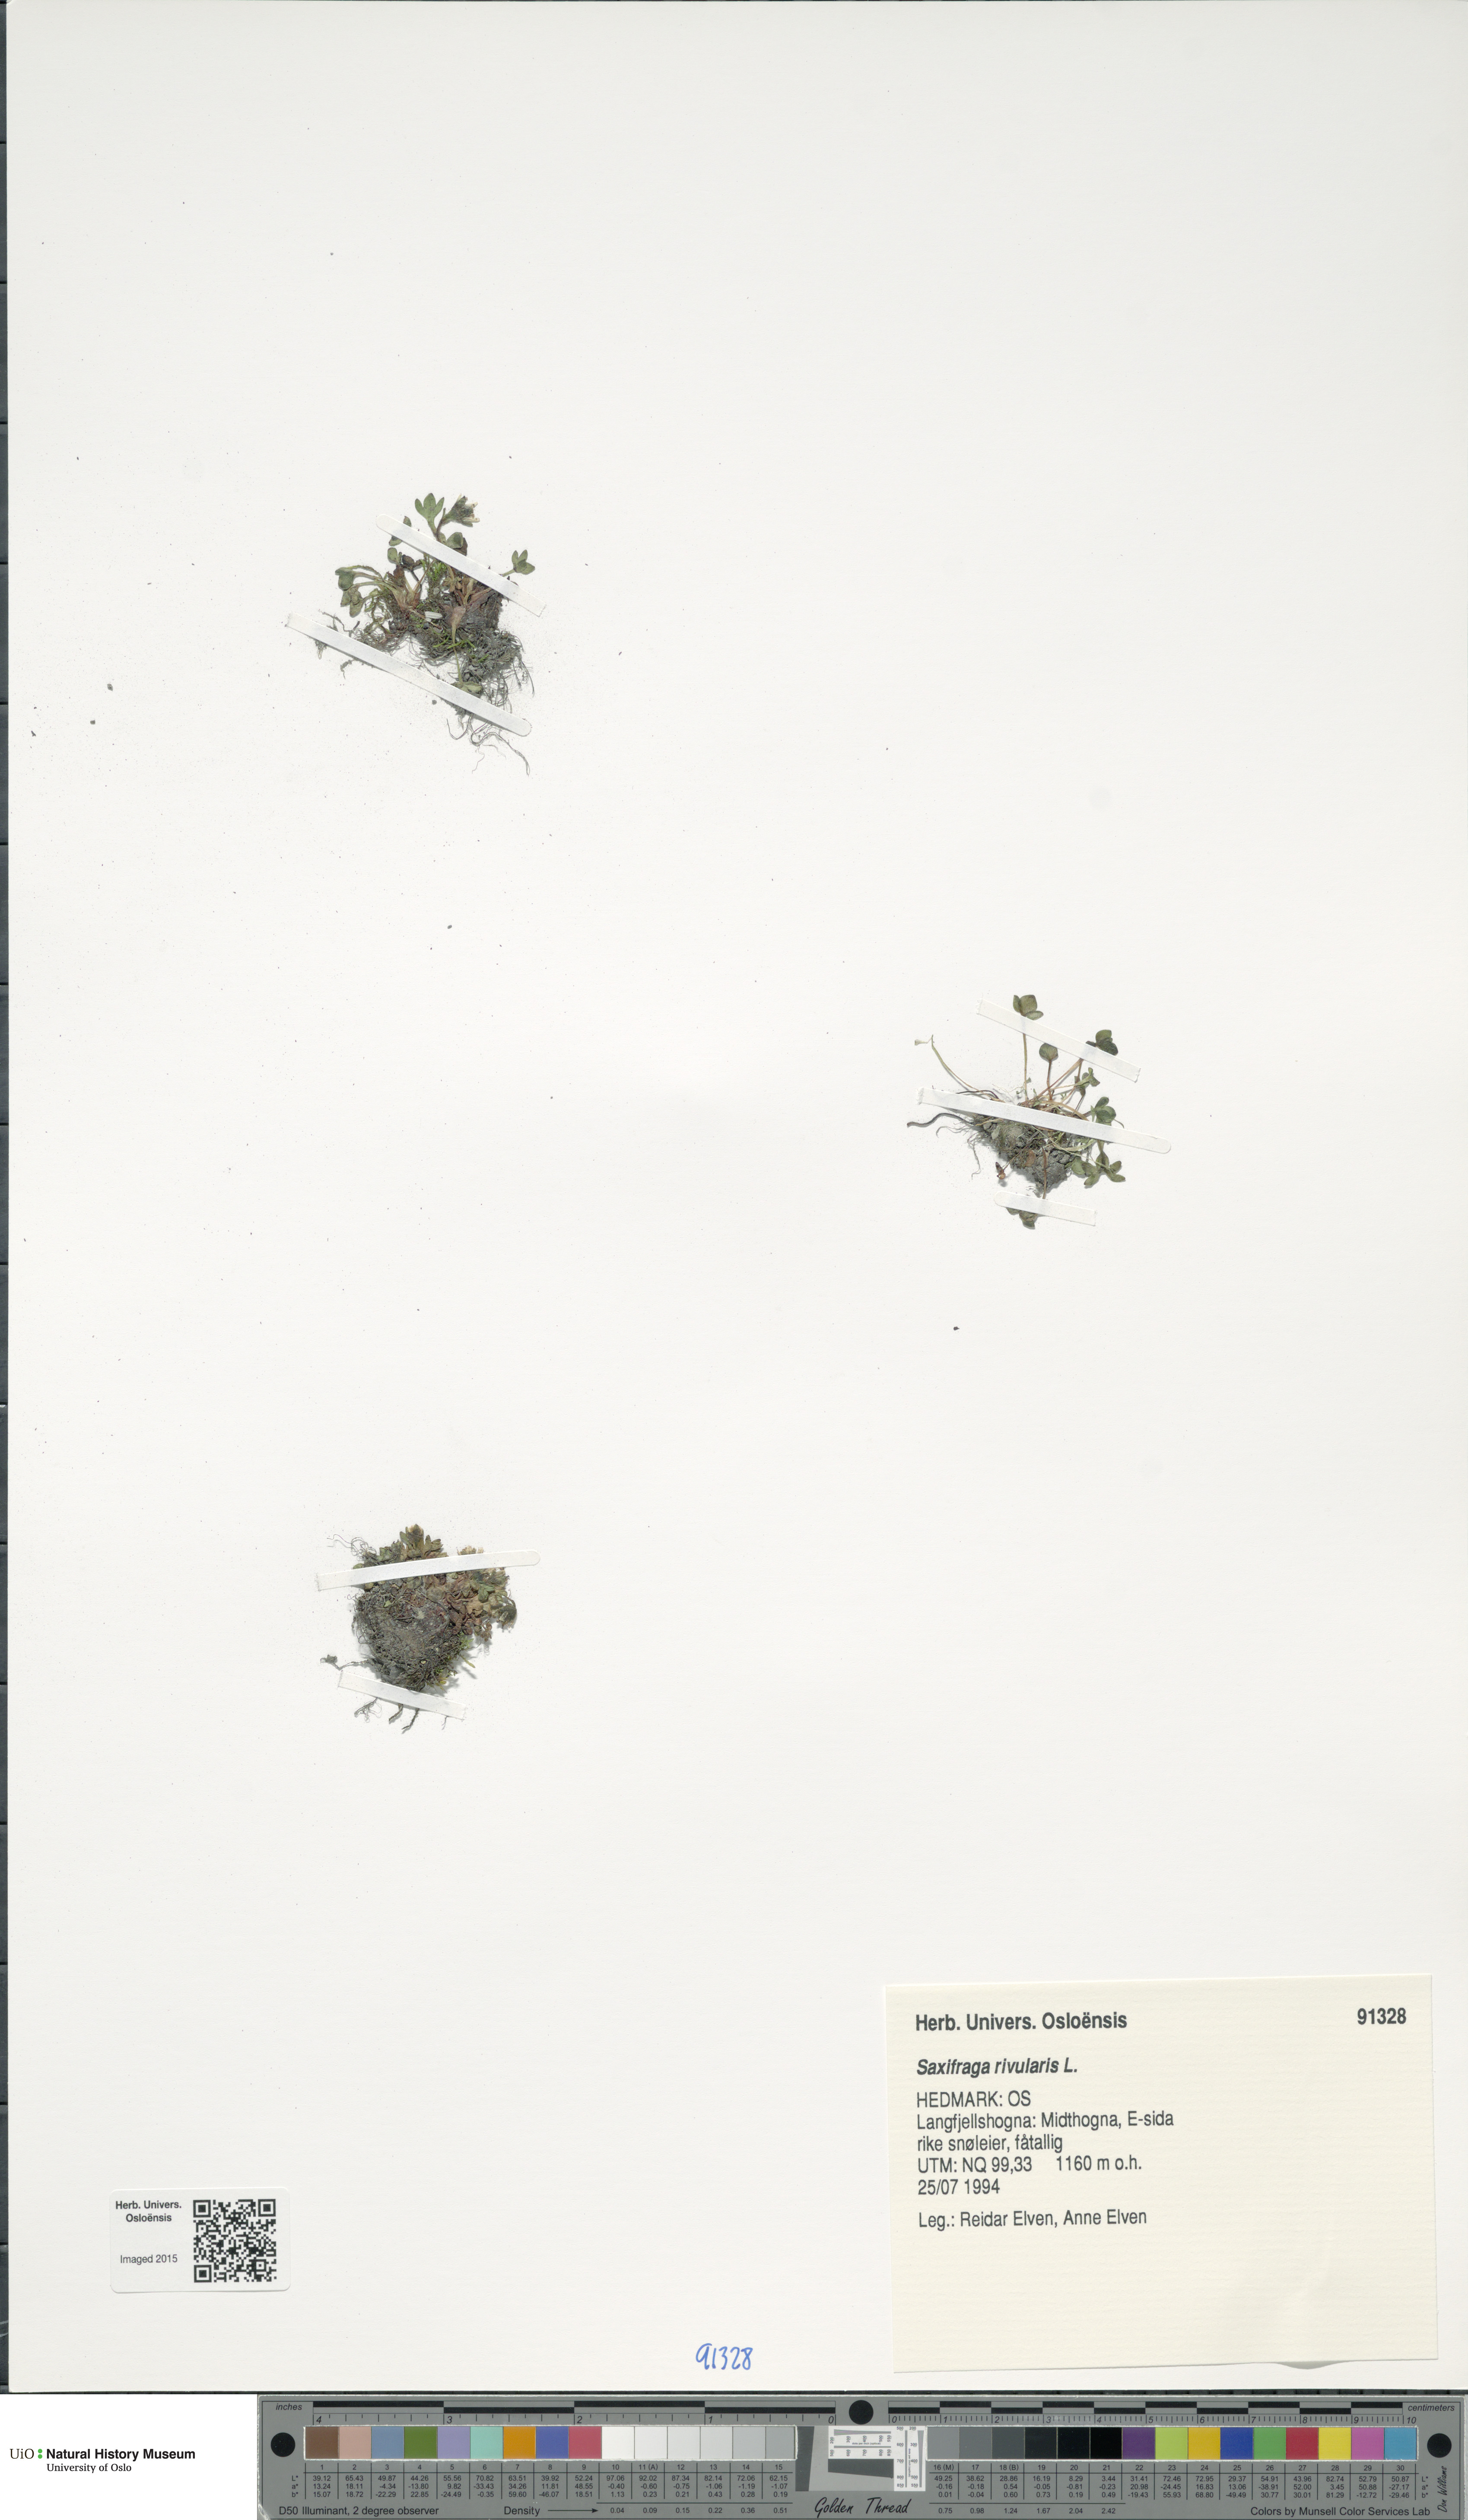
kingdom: Plantae
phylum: Tracheophyta
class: Magnoliopsida
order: Saxifragales
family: Saxifragaceae
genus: Saxifraga
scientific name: Saxifraga rivularis
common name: Highland saxifrage
